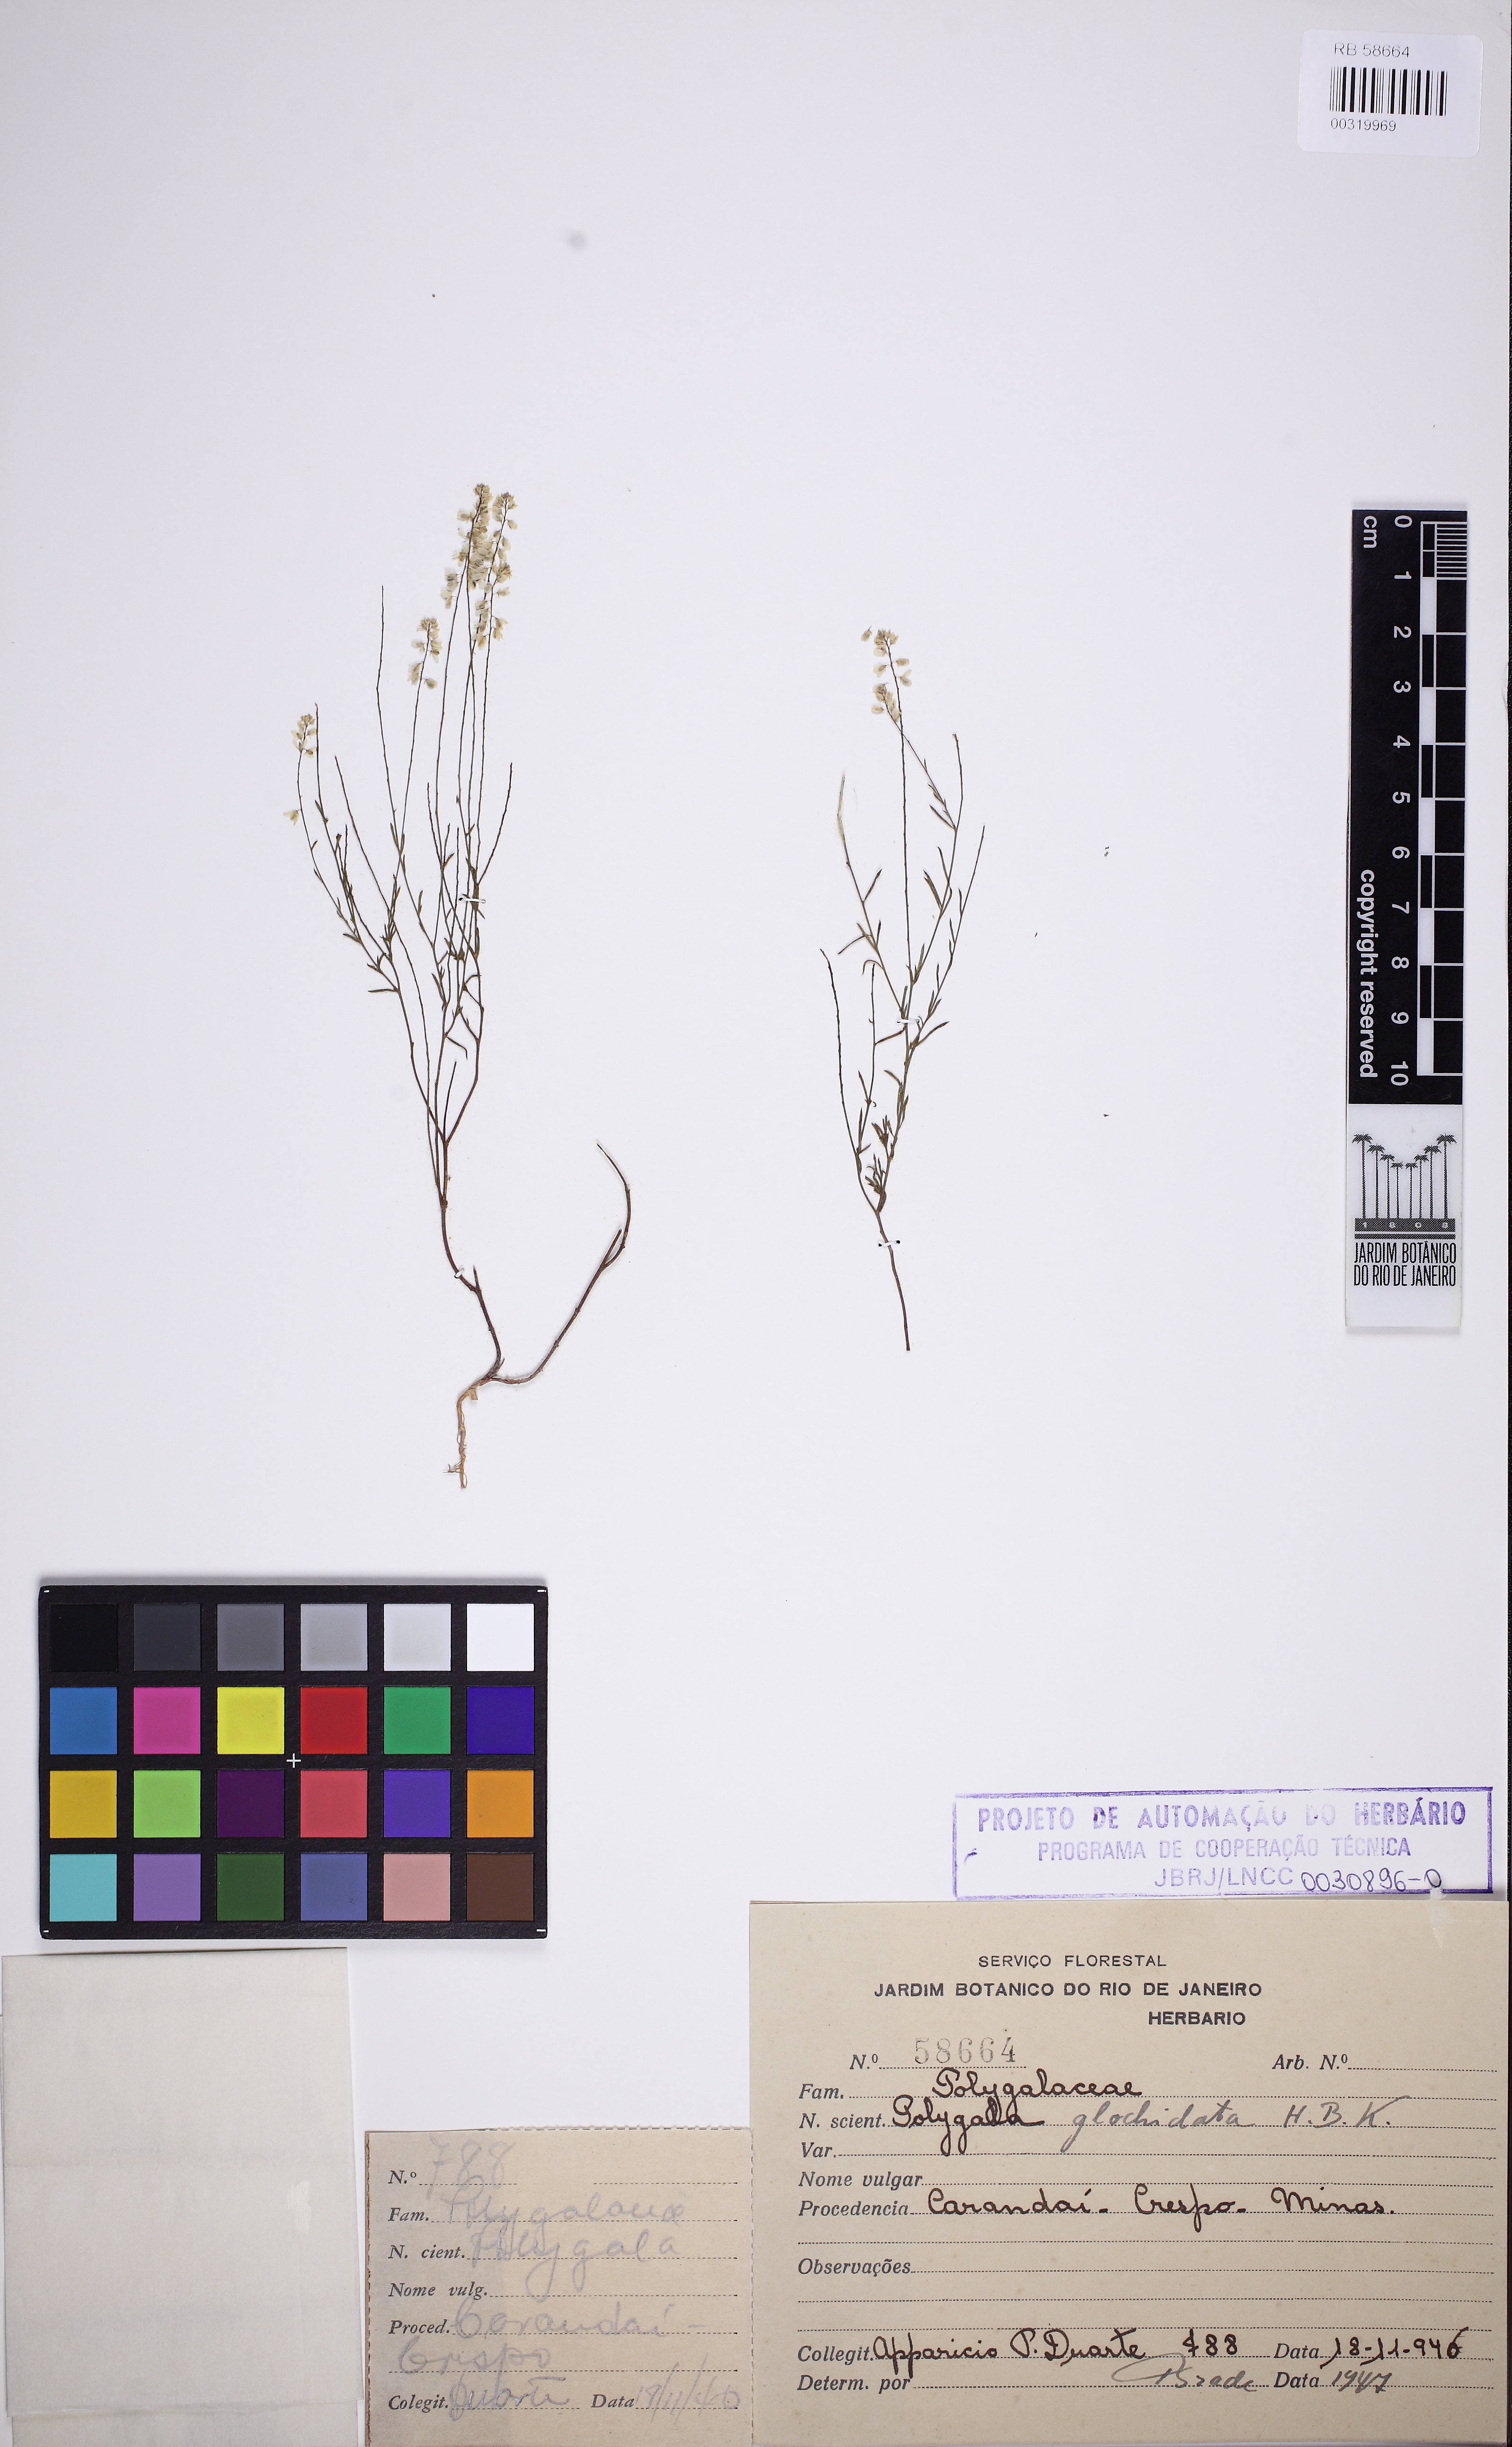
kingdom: Plantae
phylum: Tracheophyta
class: Magnoliopsida
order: Fabales
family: Polygalaceae
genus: Polygala
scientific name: Polygala glochidiata
